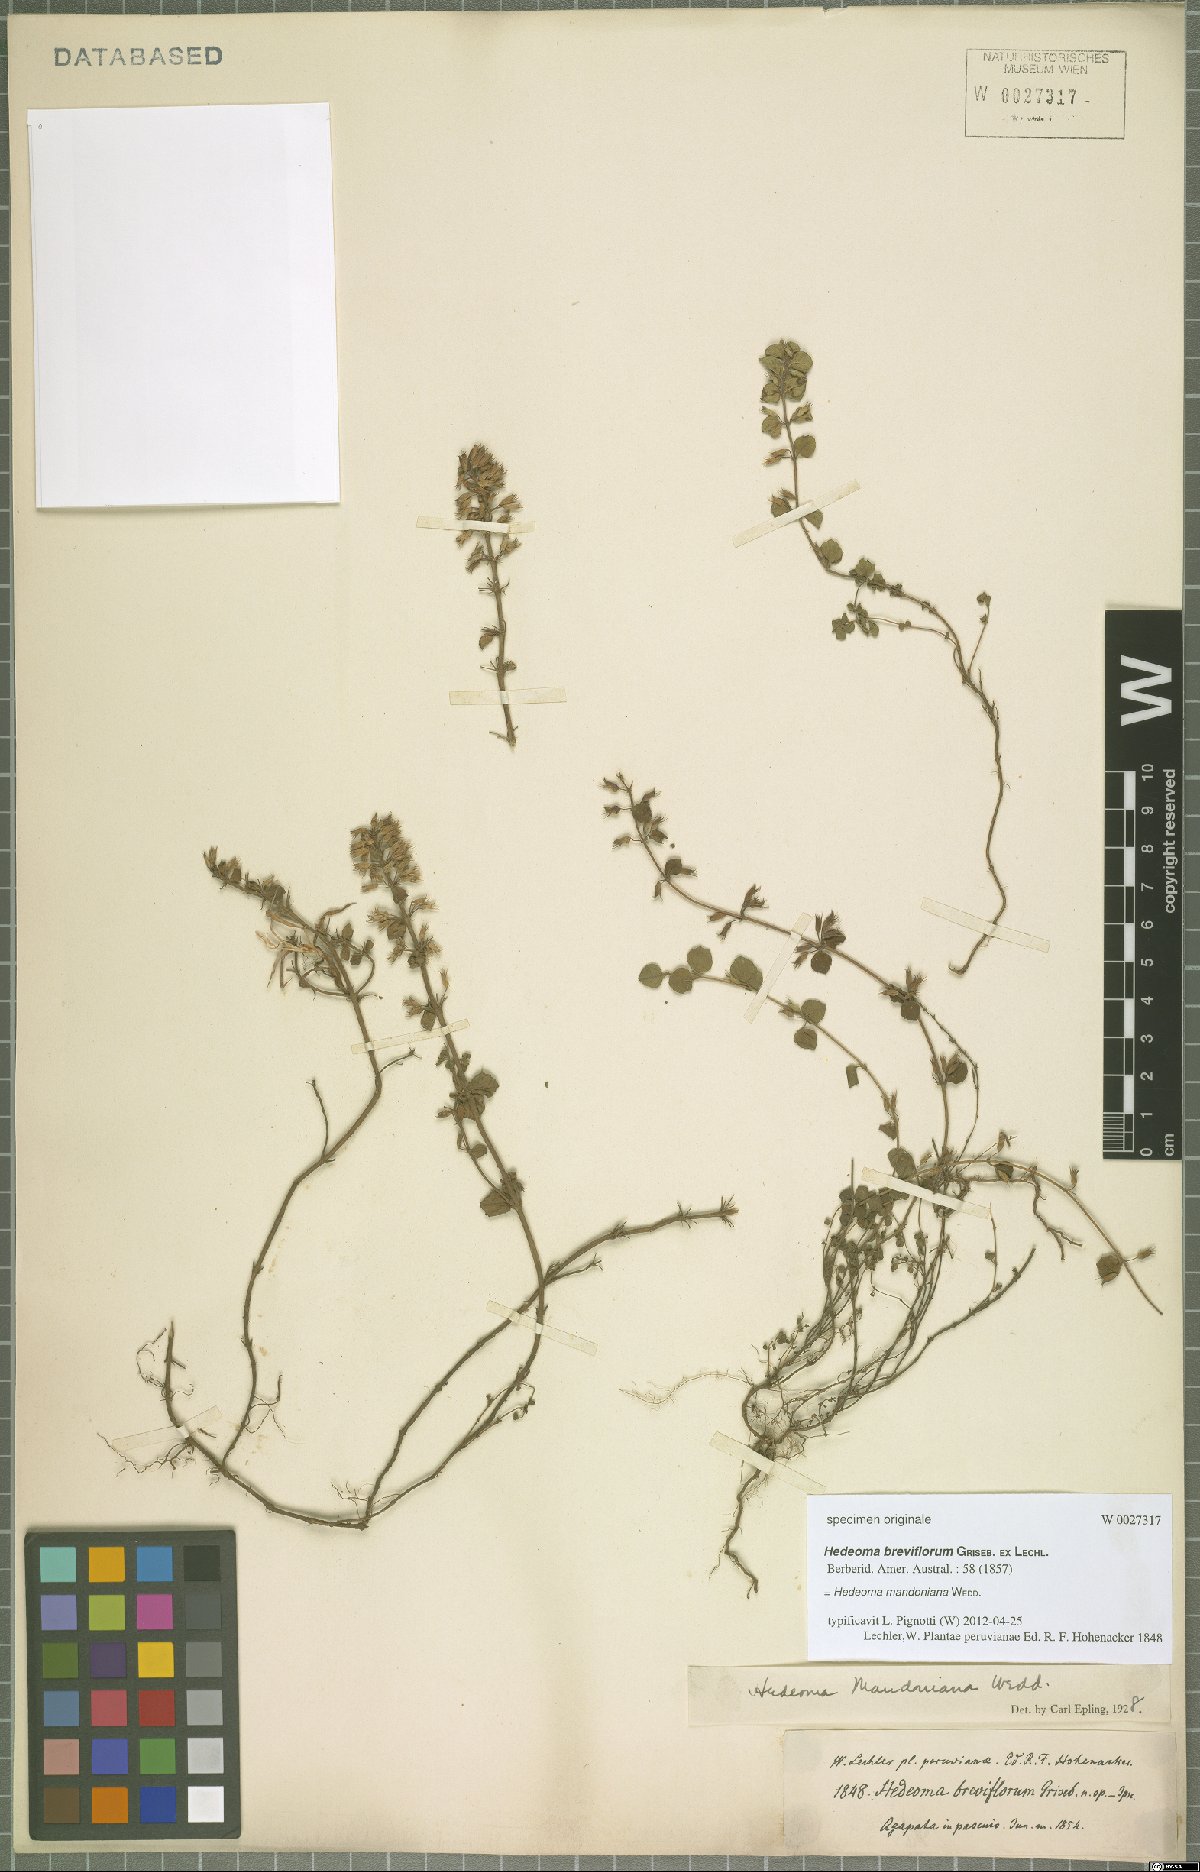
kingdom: Plantae
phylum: Tracheophyta
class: Magnoliopsida
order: Lamiales
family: Lamiaceae
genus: Hedeoma
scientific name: Hedeoma mandoniana
